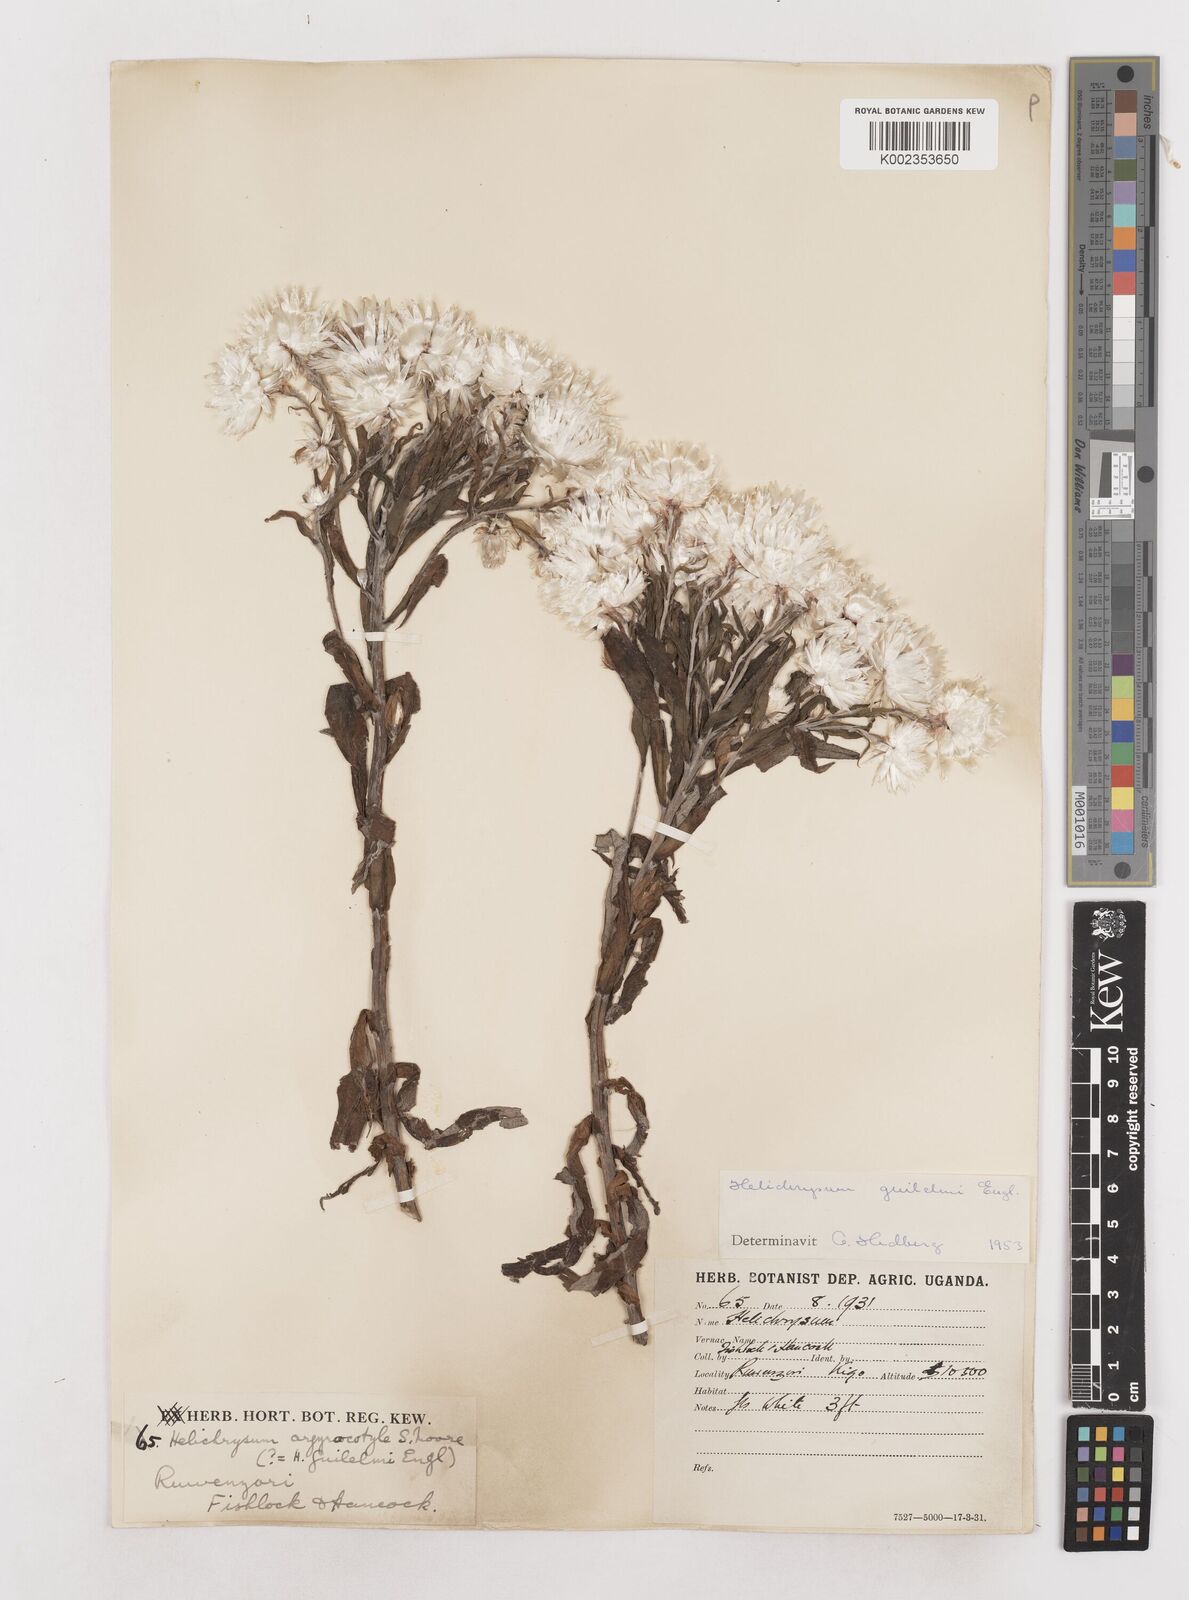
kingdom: Plantae
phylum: Tracheophyta
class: Magnoliopsida
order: Asterales
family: Asteraceae
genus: Helichrysum
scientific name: Helichrysum formosissimum
